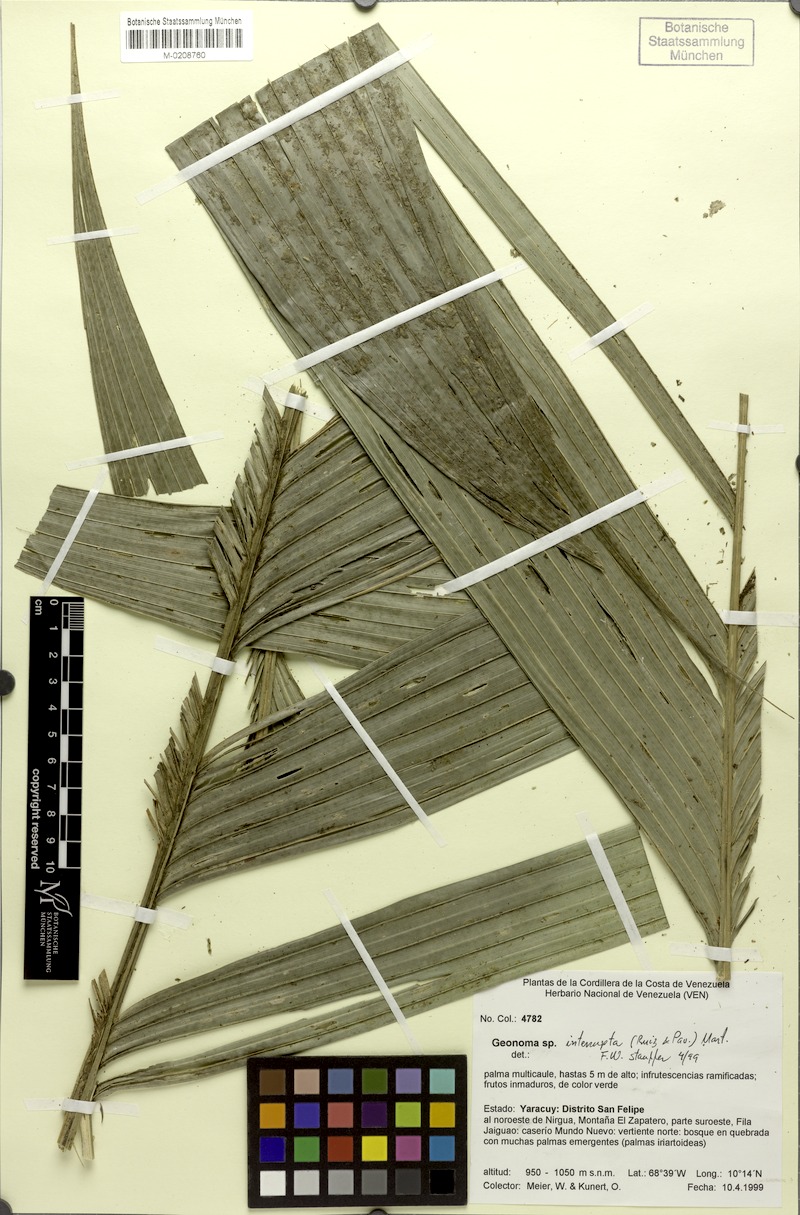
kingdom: Plantae
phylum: Tracheophyta
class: Liliopsida
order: Arecales
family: Arecaceae
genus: Geonoma
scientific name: Geonoma interrupta
